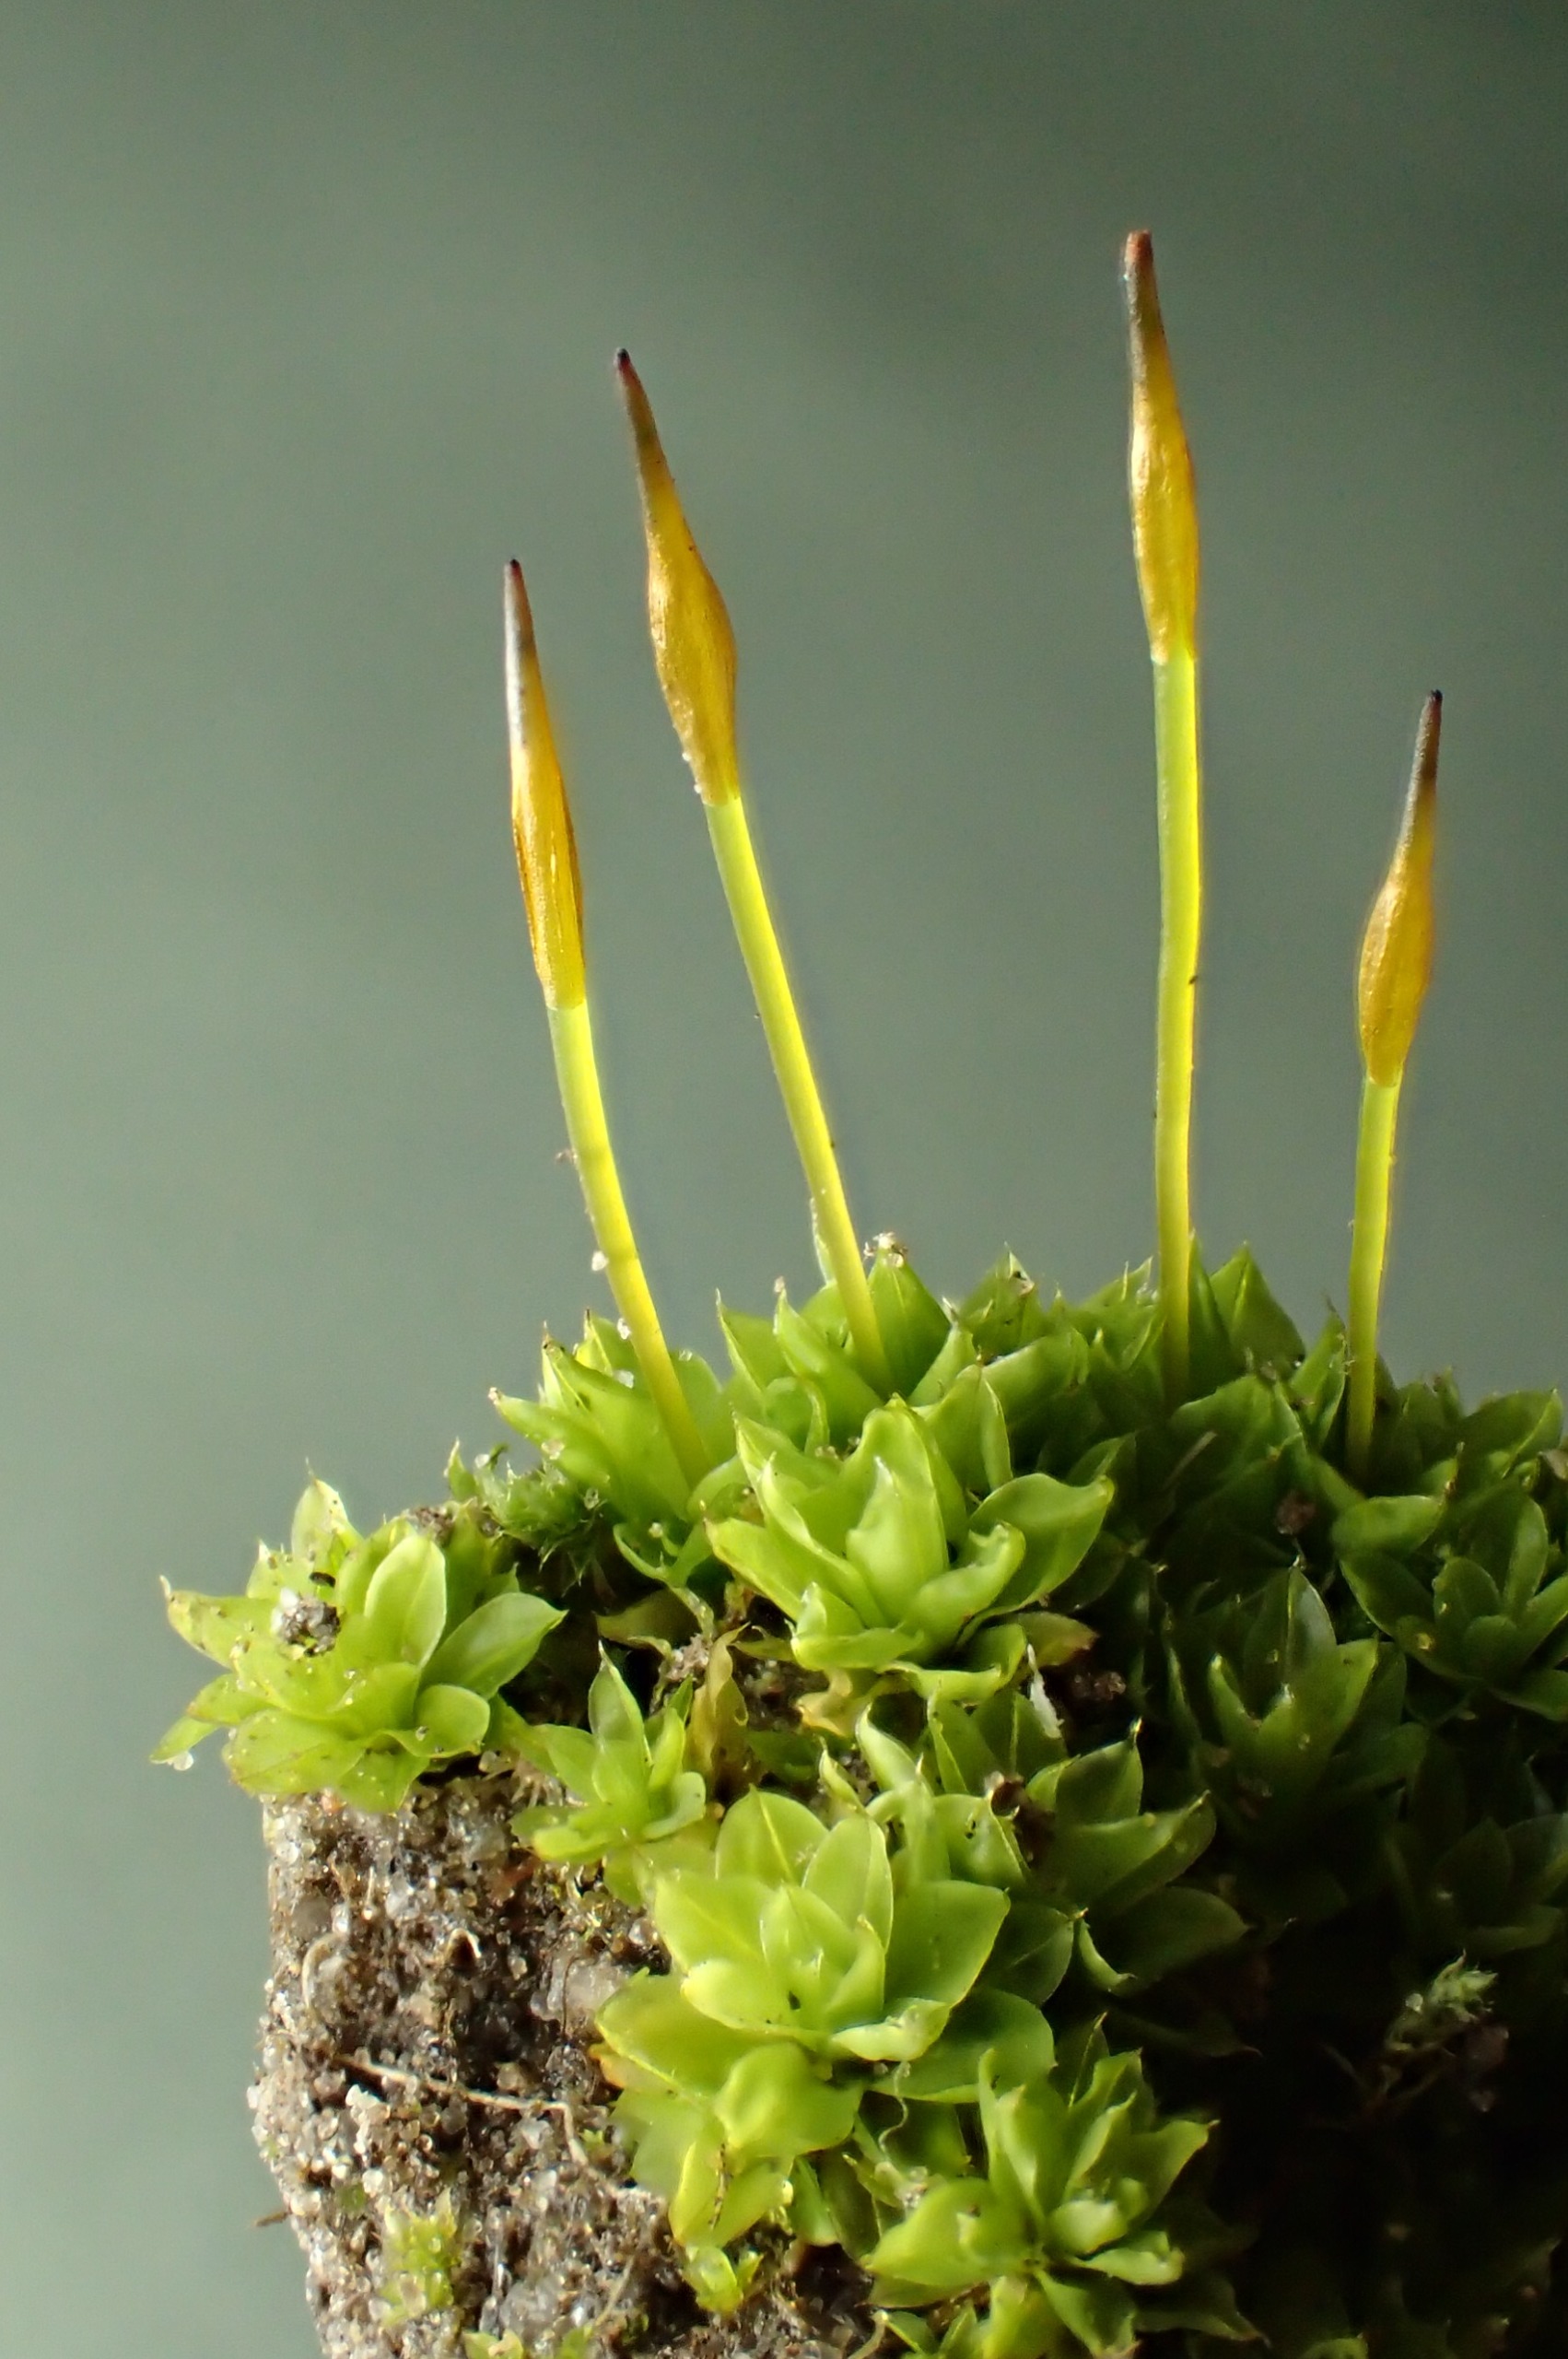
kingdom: Plantae
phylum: Bryophyta
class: Bryopsida
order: Pottiales
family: Pottiaceae
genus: Tortula
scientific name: Tortula subulata
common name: Syl-snotand
